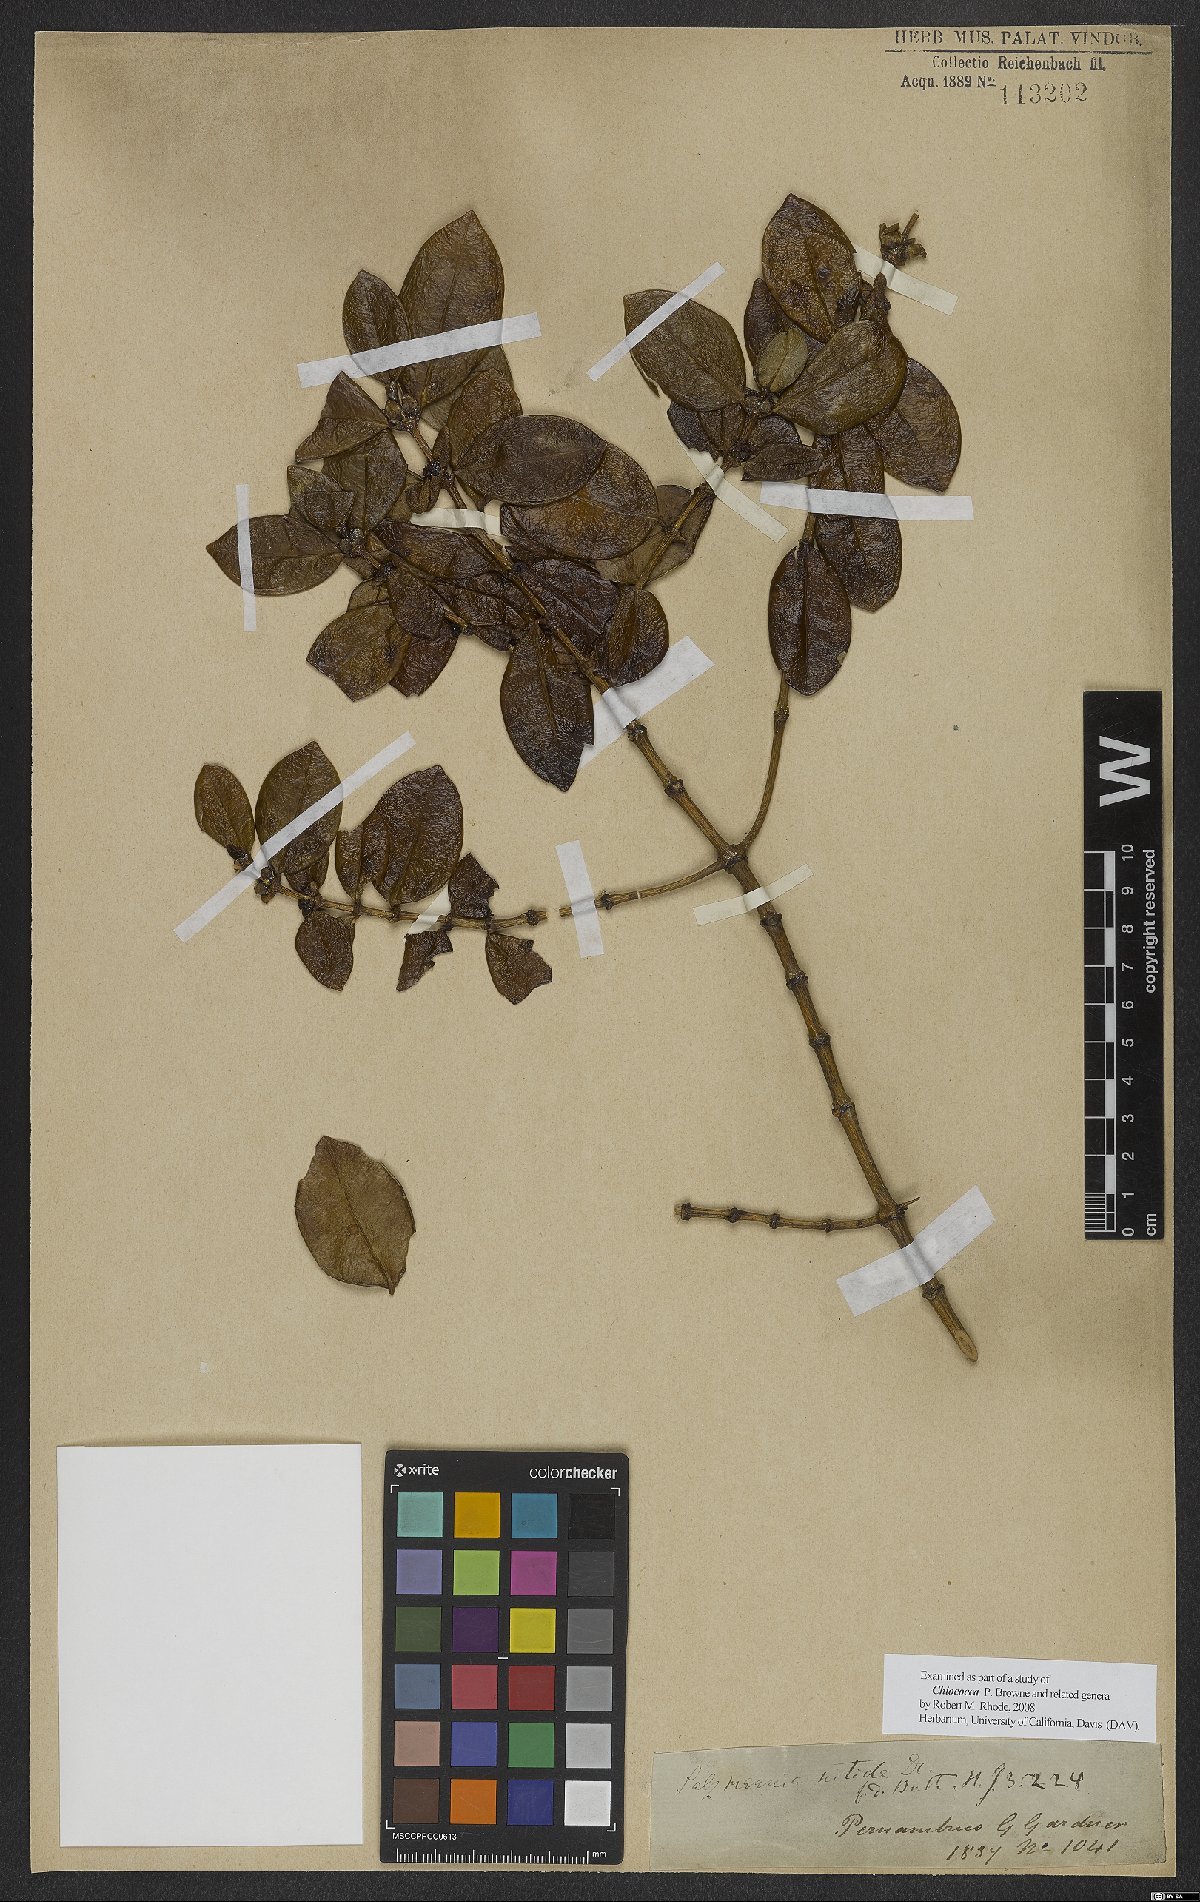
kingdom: Plantae
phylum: Tracheophyta
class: Magnoliopsida
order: Gentianales
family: Rubiaceae
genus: Chiococca
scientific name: Chiococca nitida
